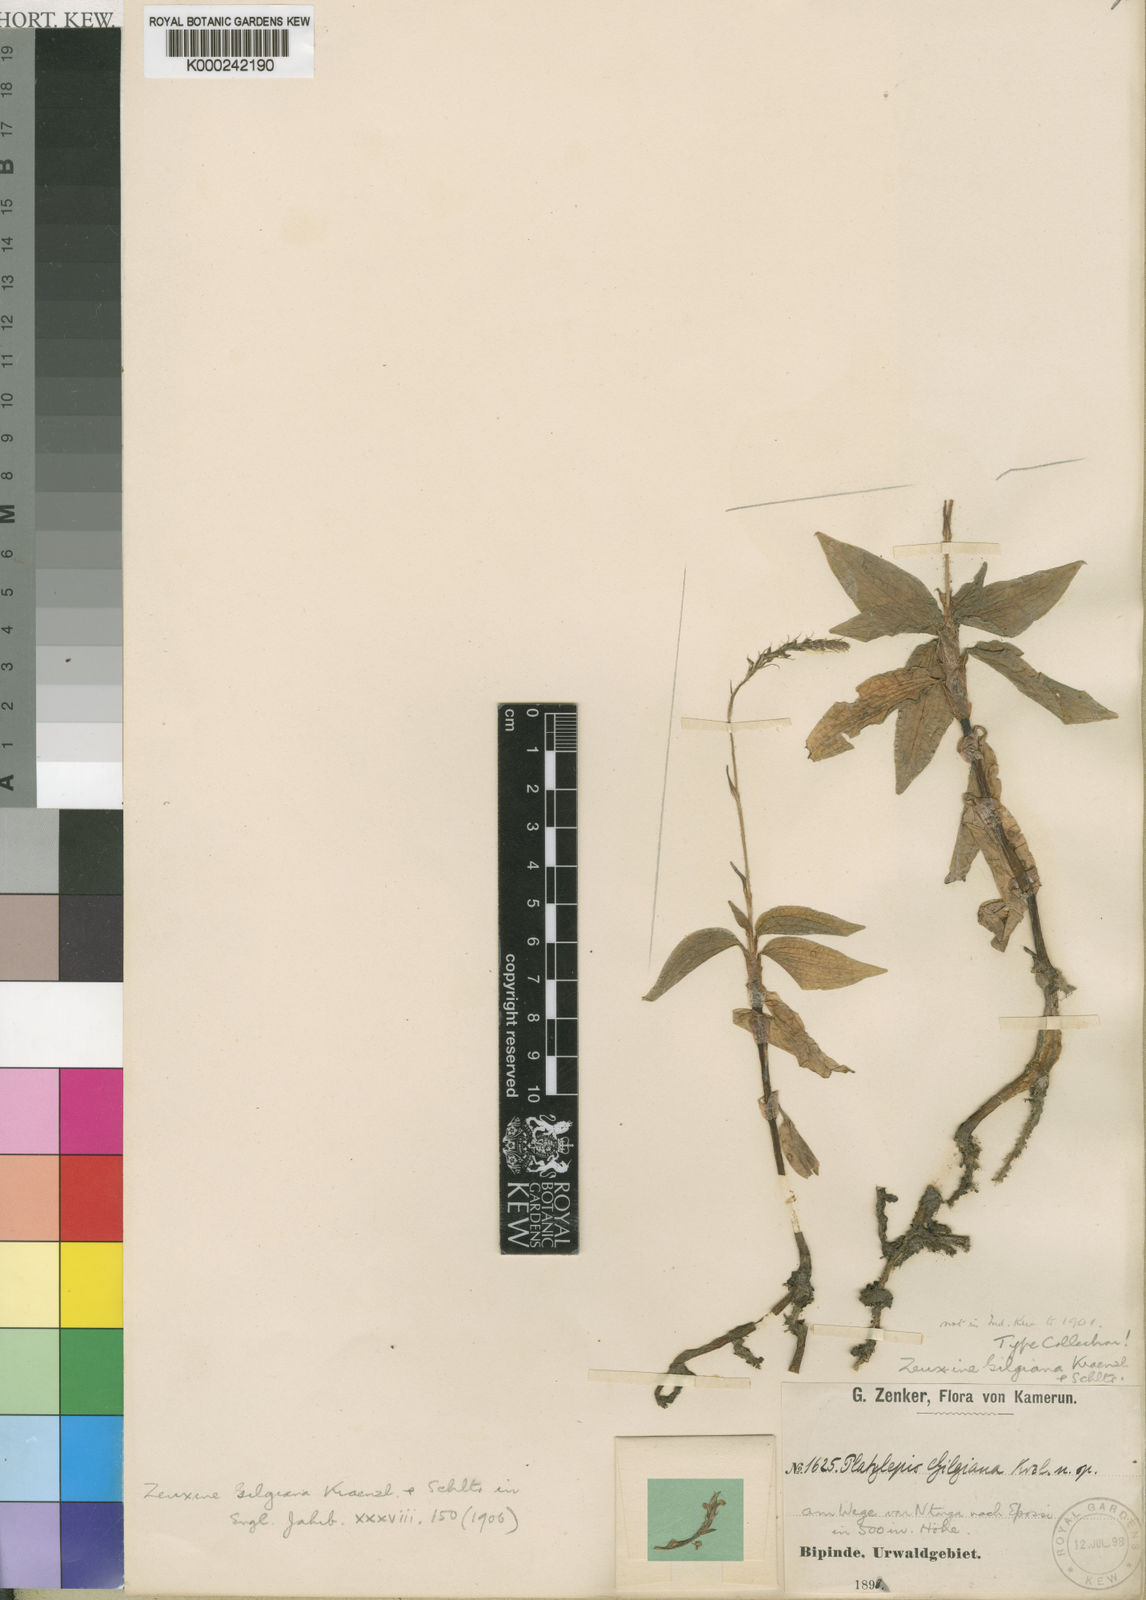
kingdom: Plantae
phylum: Tracheophyta
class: Liliopsida
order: Asparagales
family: Orchidaceae
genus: Zeuxine
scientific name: Zeuxine gilgiana
